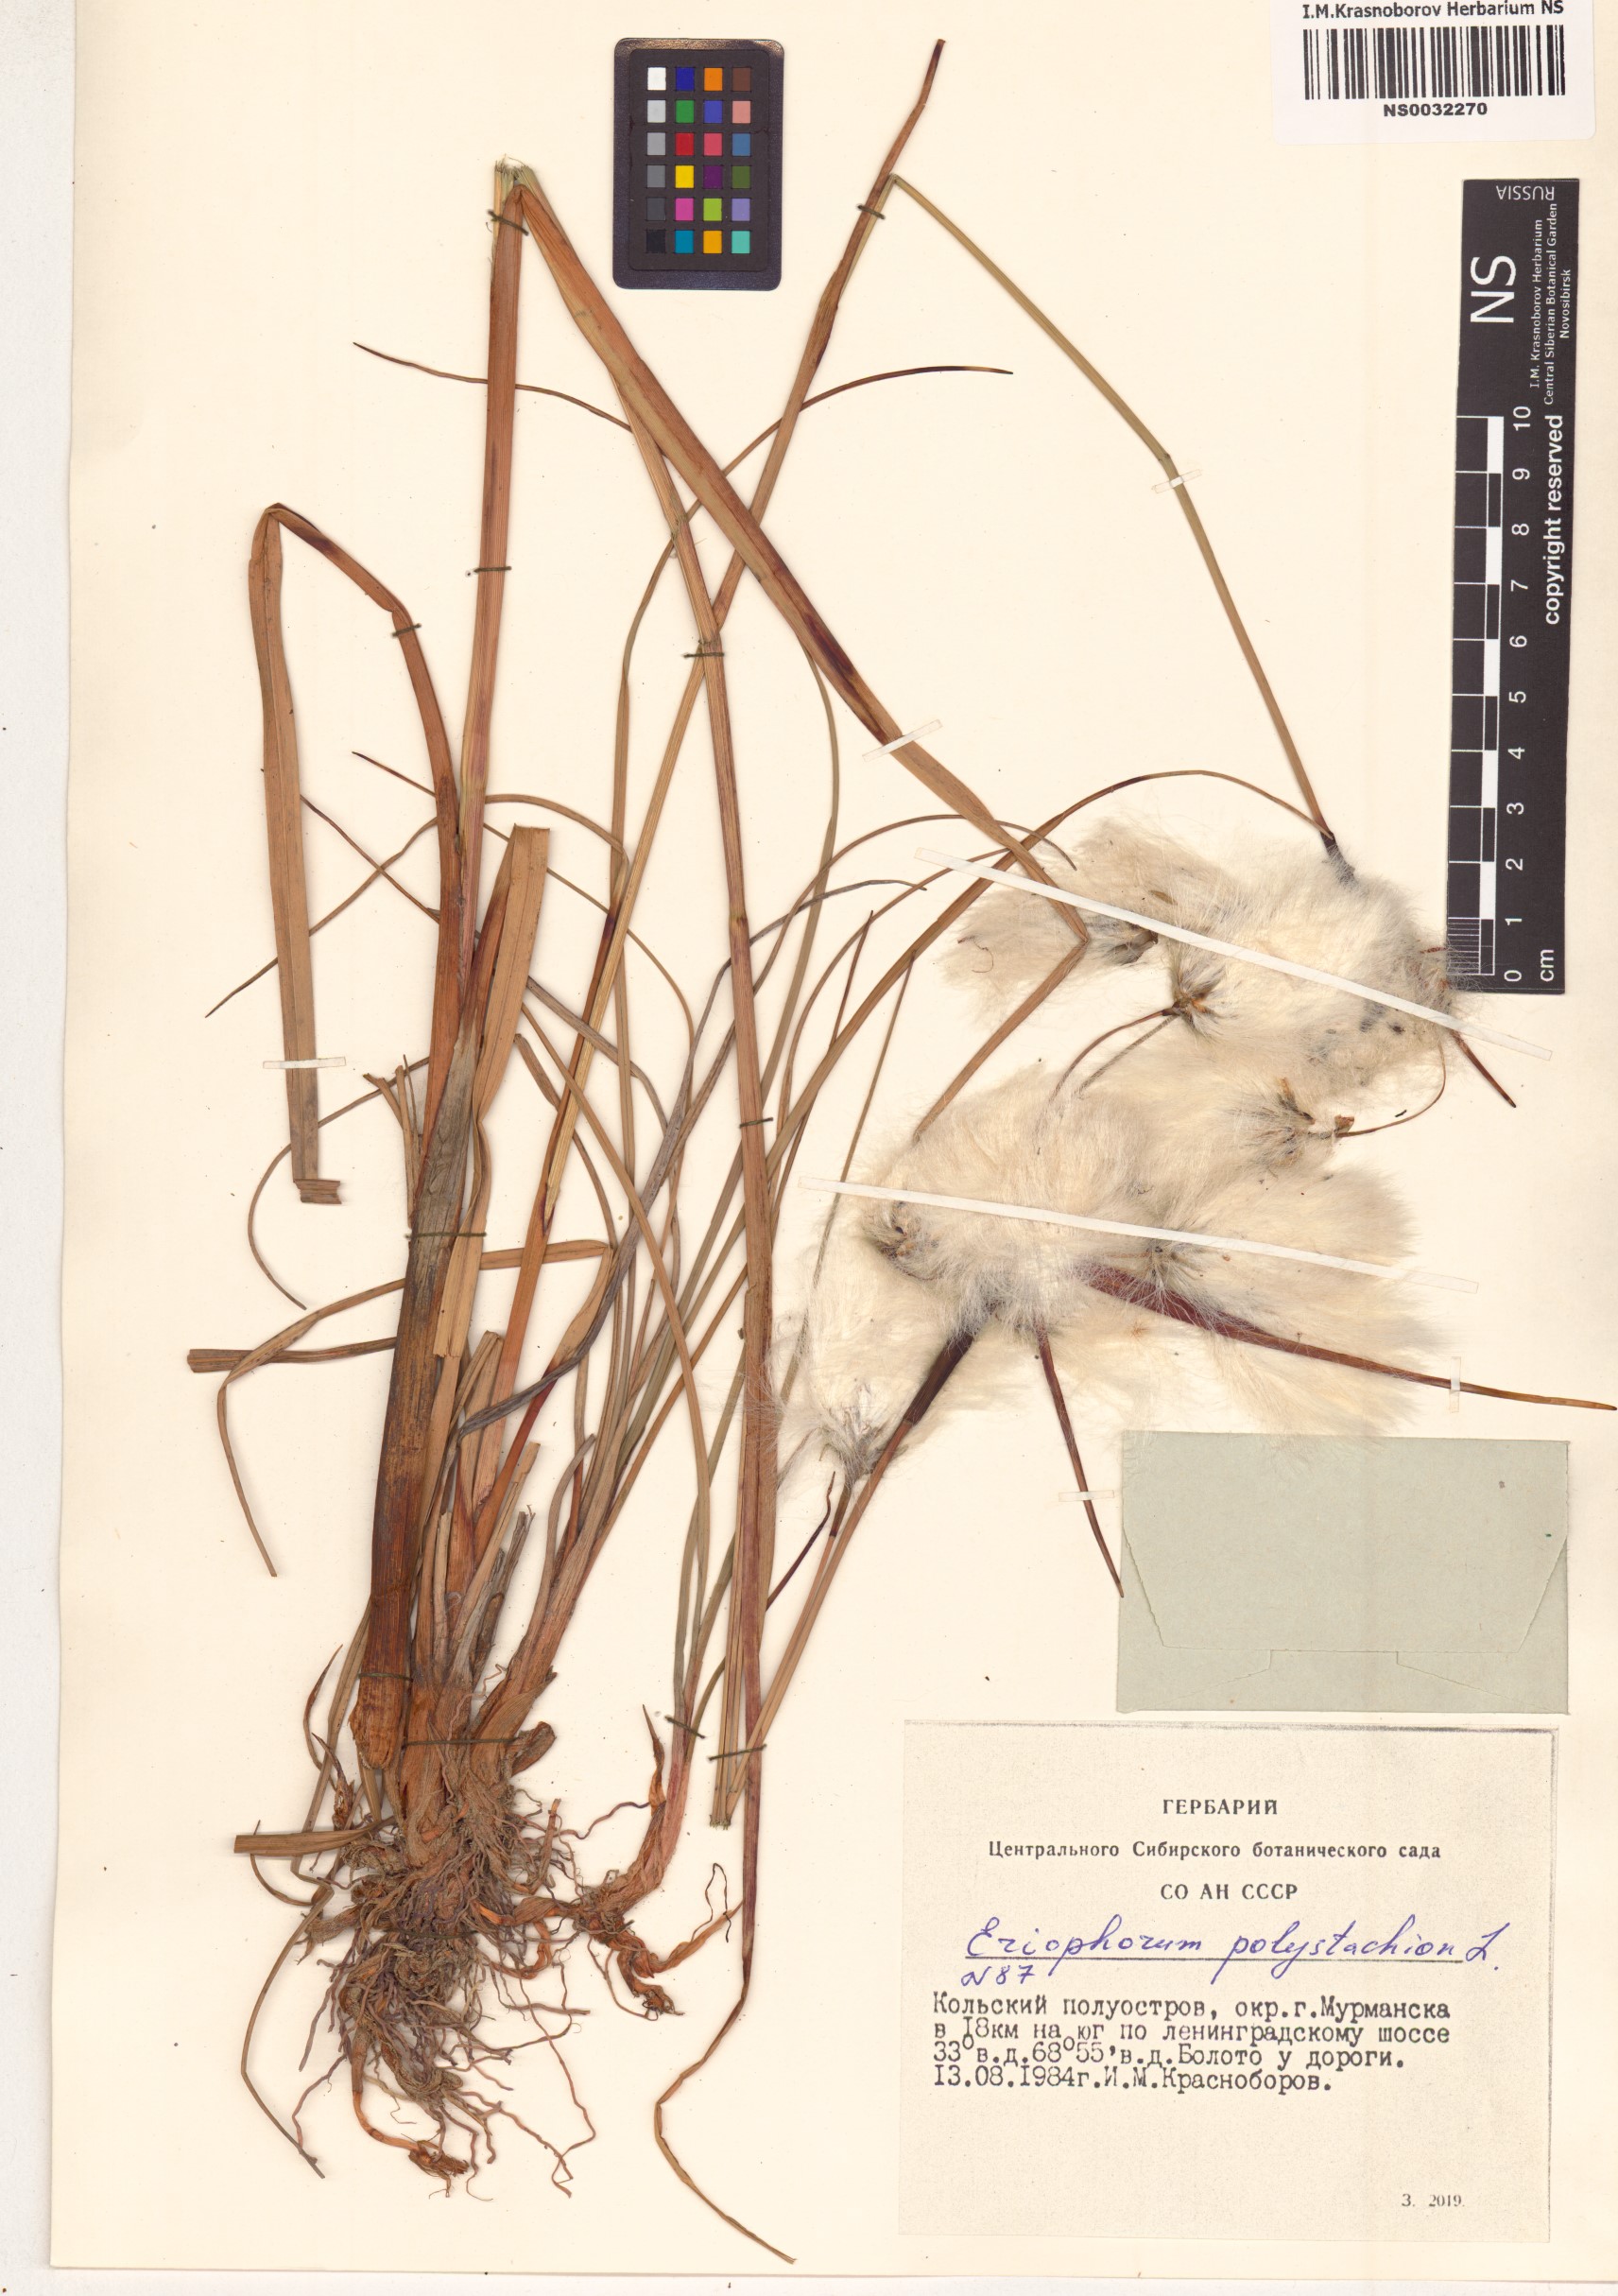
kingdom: Plantae
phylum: Tracheophyta
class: Liliopsida
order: Poales
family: Cyperaceae
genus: Eriophorum
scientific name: Eriophorum angustifolium
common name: Common cottongrass
